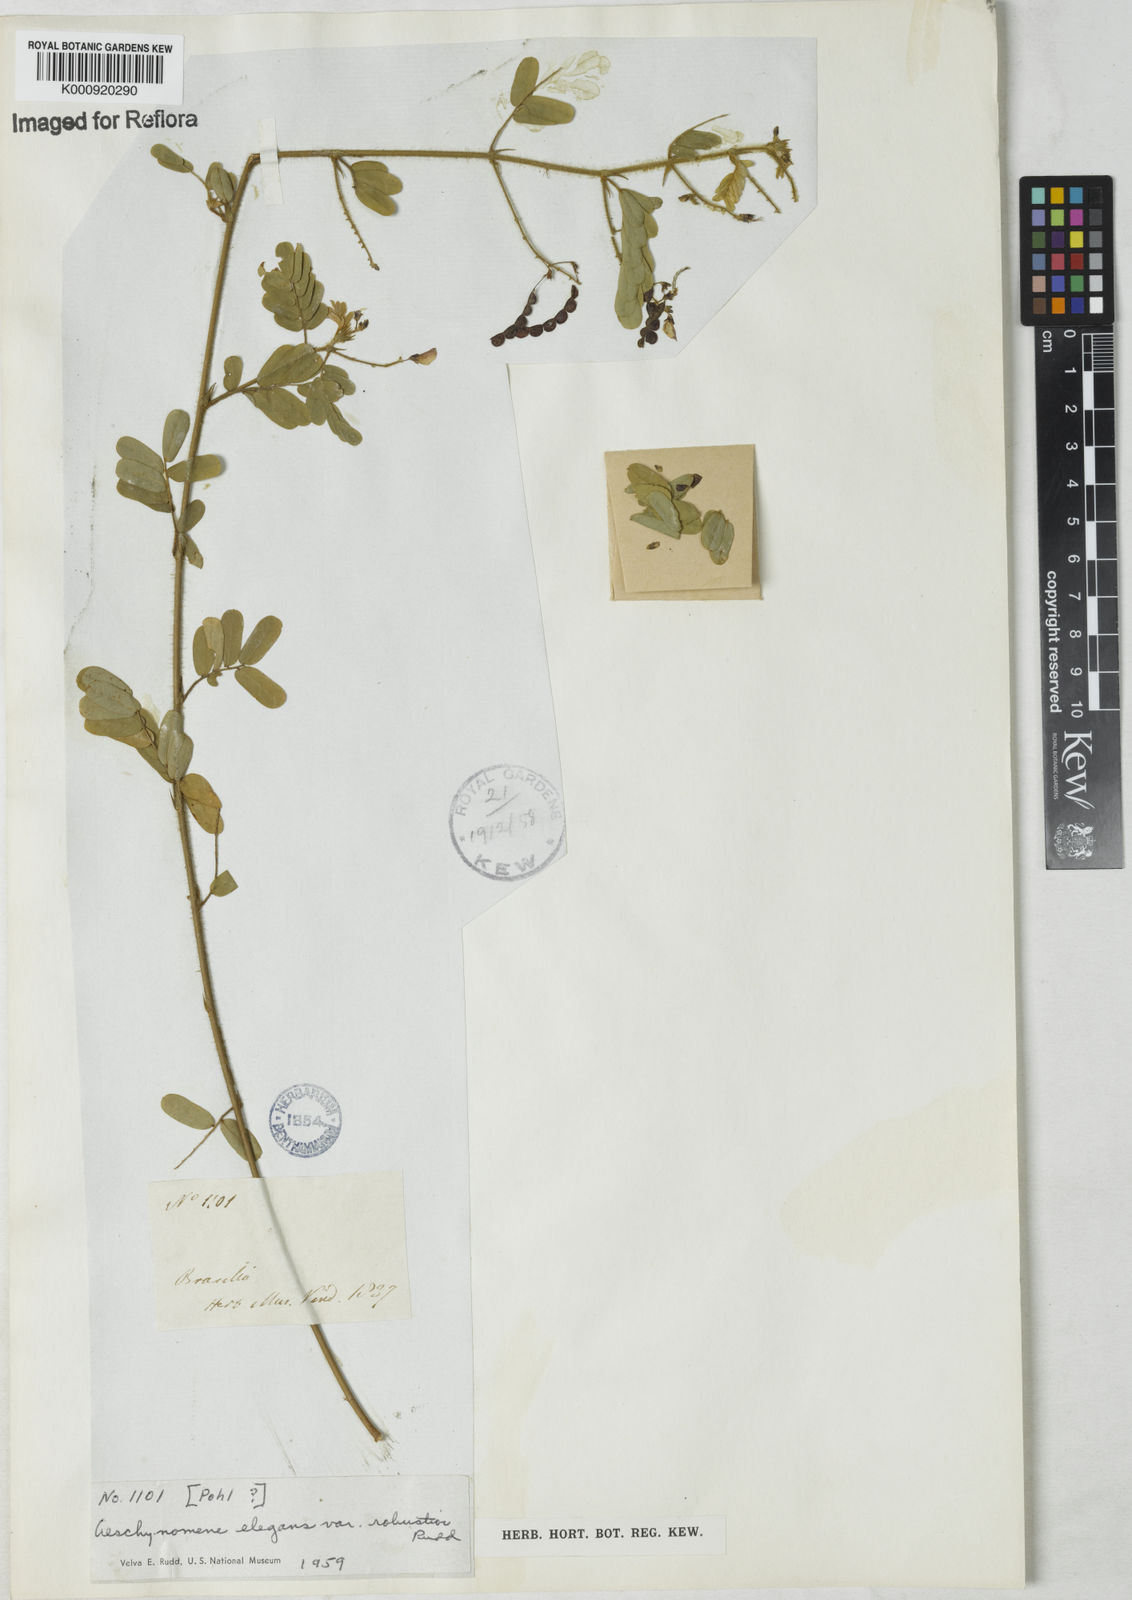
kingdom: Plantae
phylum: Tracheophyta
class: Magnoliopsida
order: Fabales
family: Fabaceae
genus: Ctenodon
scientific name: Ctenodon elegans
